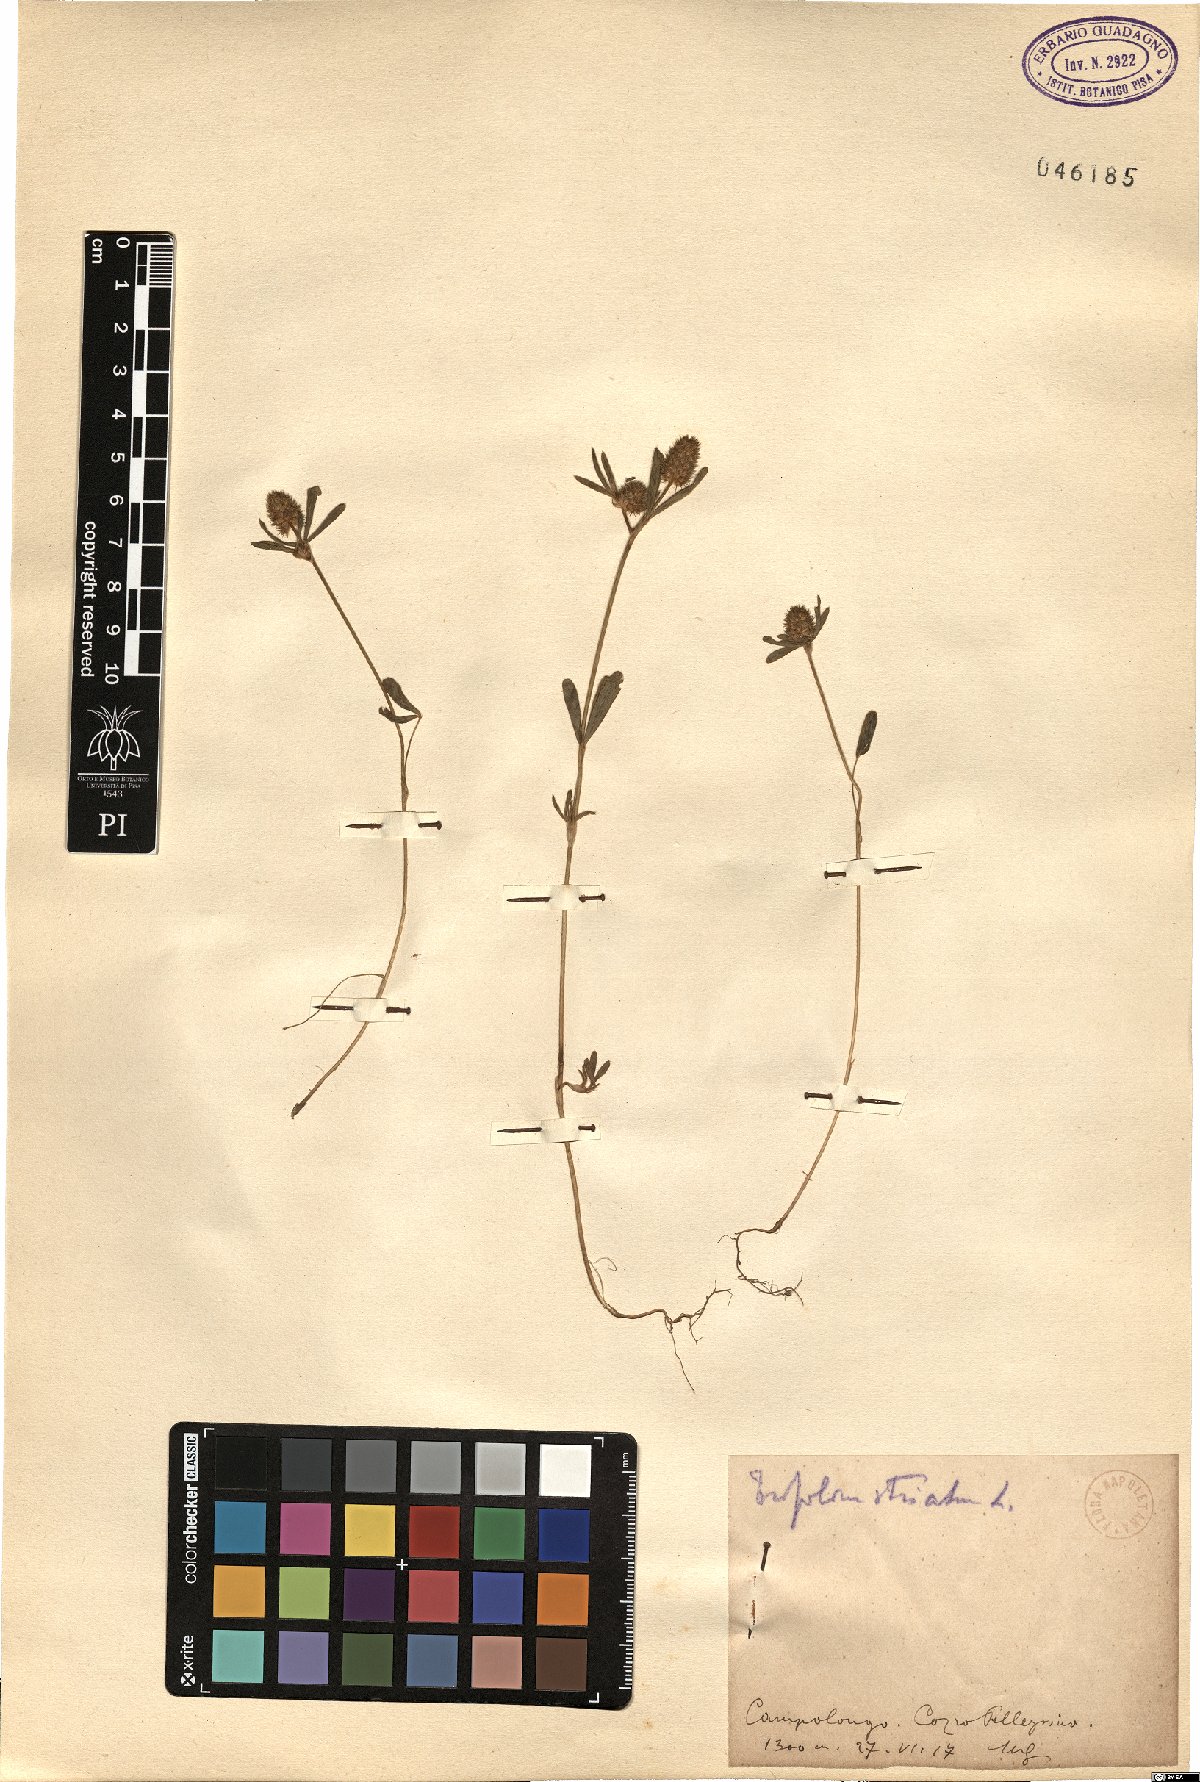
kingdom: Plantae
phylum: Tracheophyta
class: Magnoliopsida
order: Fabales
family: Fabaceae
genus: Trifolium
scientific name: Trifolium striatum
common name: Knotted clover
